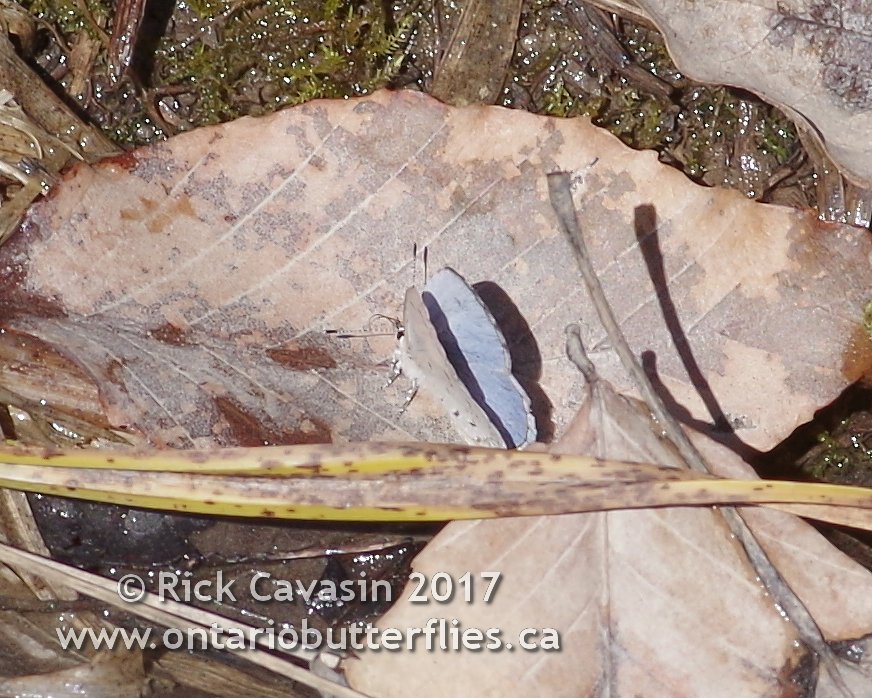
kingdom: Animalia
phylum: Arthropoda
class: Insecta
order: Lepidoptera
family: Lycaenidae
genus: Celastrina
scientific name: Celastrina
